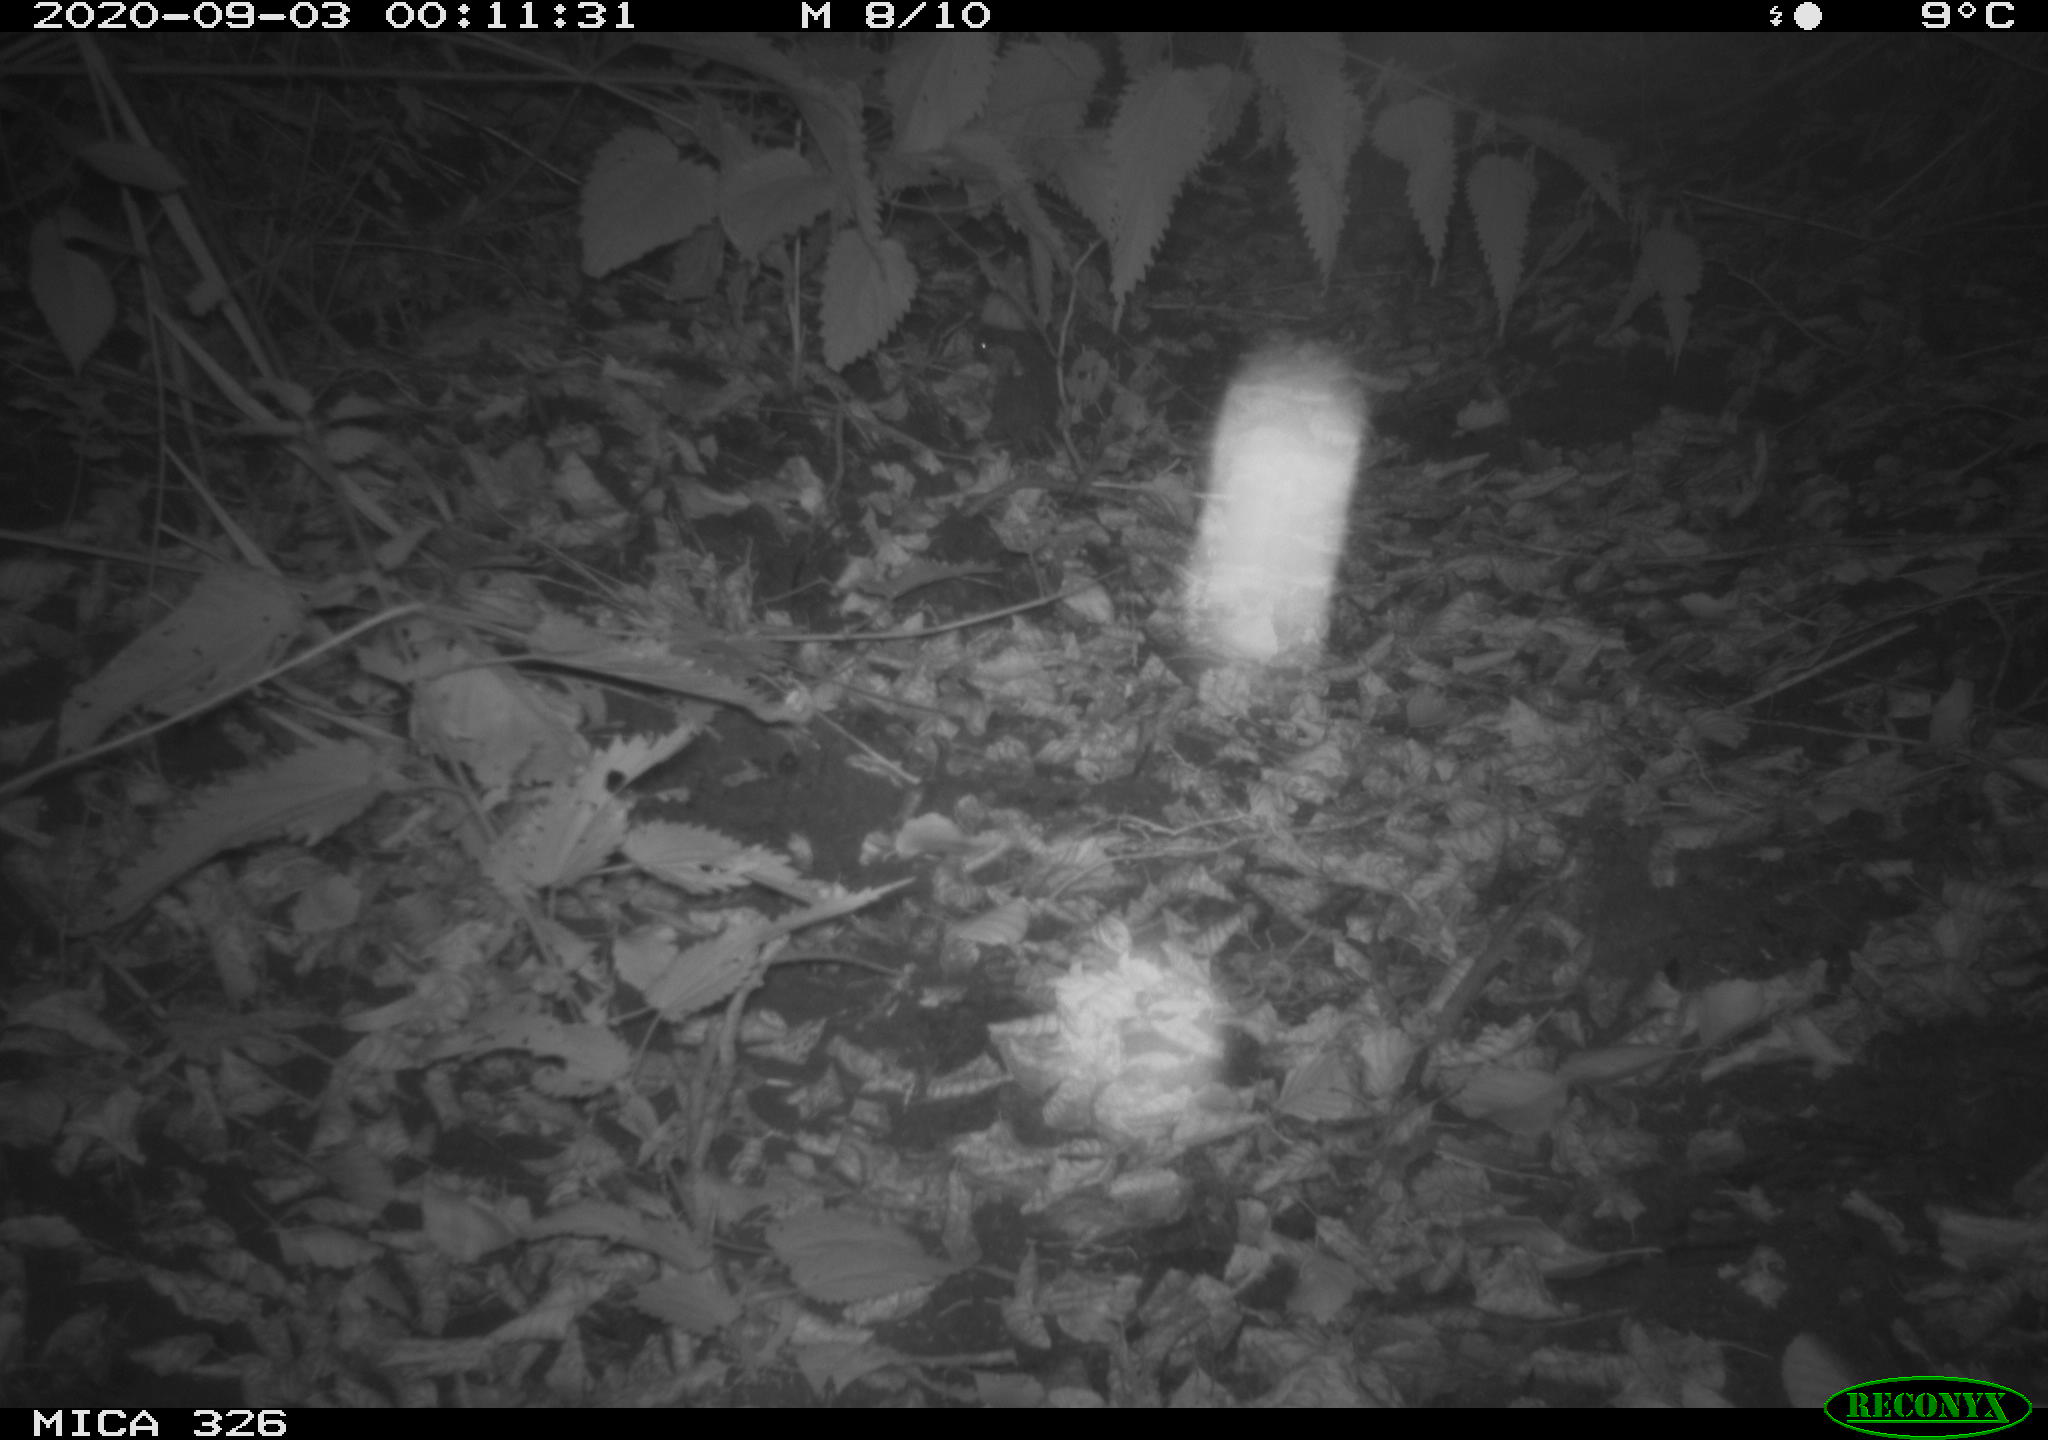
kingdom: Animalia
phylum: Chordata
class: Mammalia
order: Rodentia
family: Myocastoridae
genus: Myocastor
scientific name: Myocastor coypus
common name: Coypu
